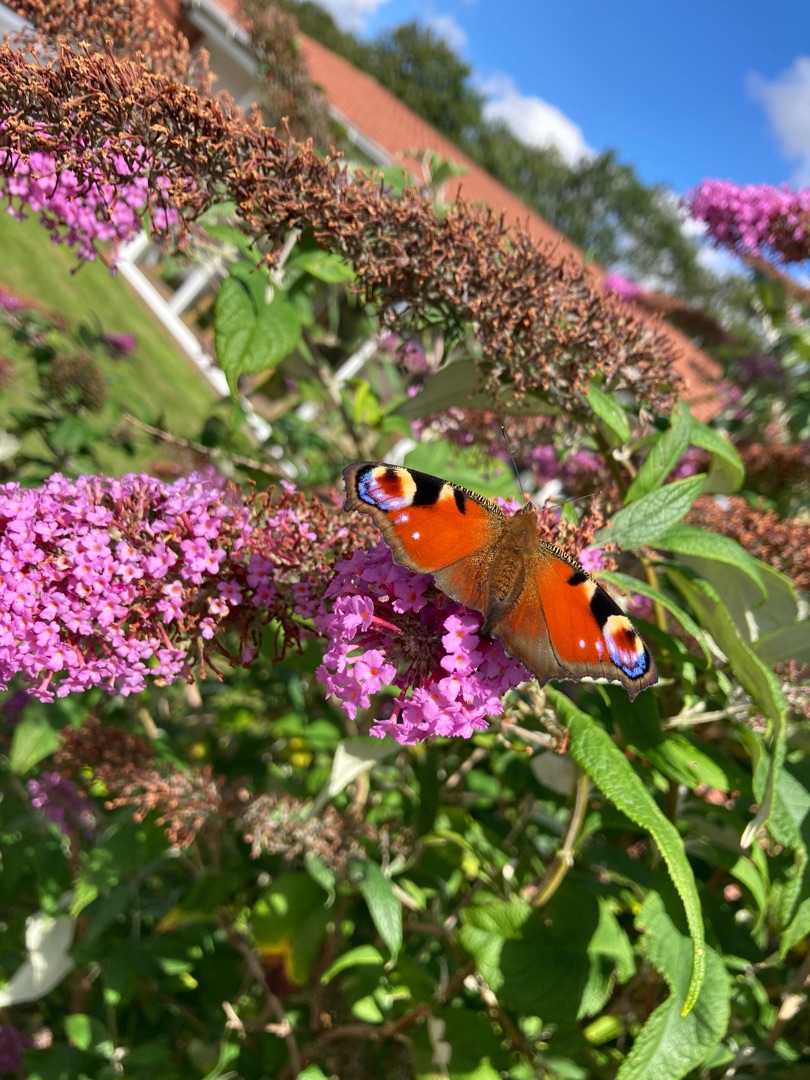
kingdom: Animalia
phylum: Arthropoda
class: Insecta
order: Lepidoptera
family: Nymphalidae
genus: Aglais
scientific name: Aglais io
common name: Dagpåfugleøje
